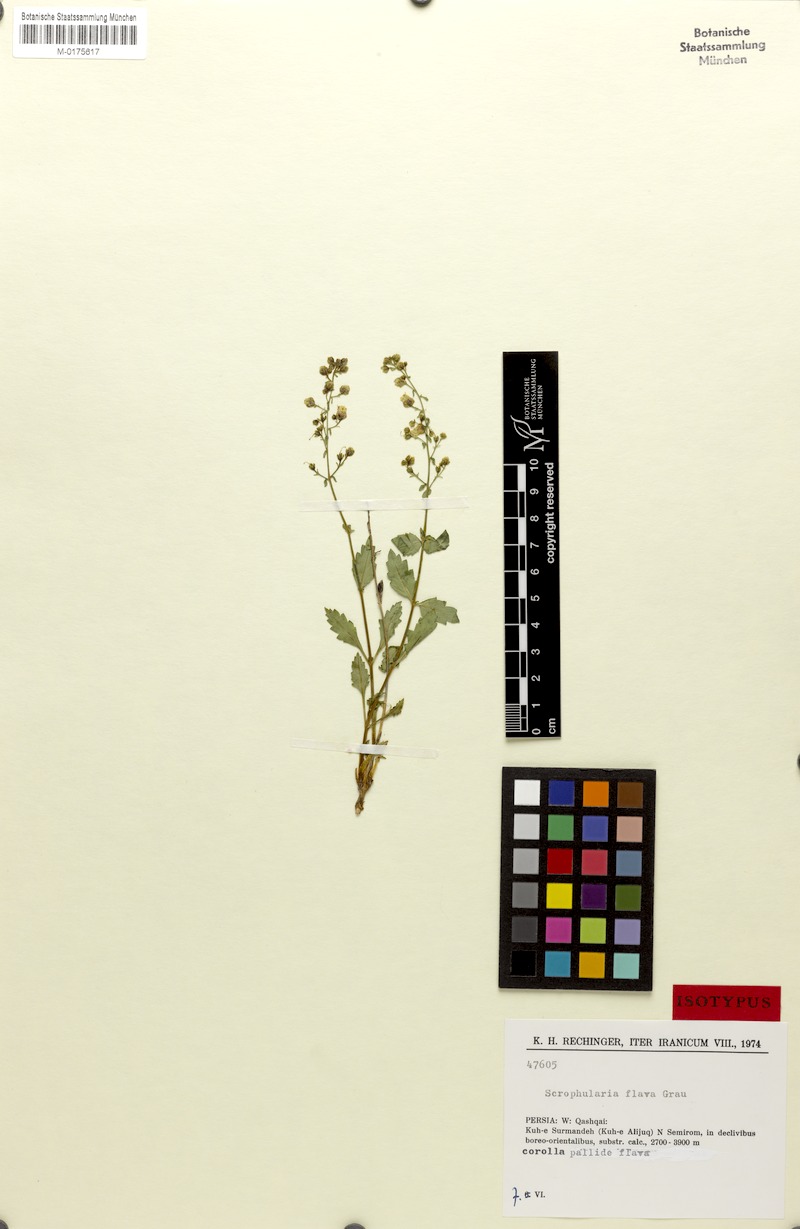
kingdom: Plantae
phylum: Tracheophyta
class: Magnoliopsida
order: Lamiales
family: Scrophulariaceae
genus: Scrophularia
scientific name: Scrophularia flava
